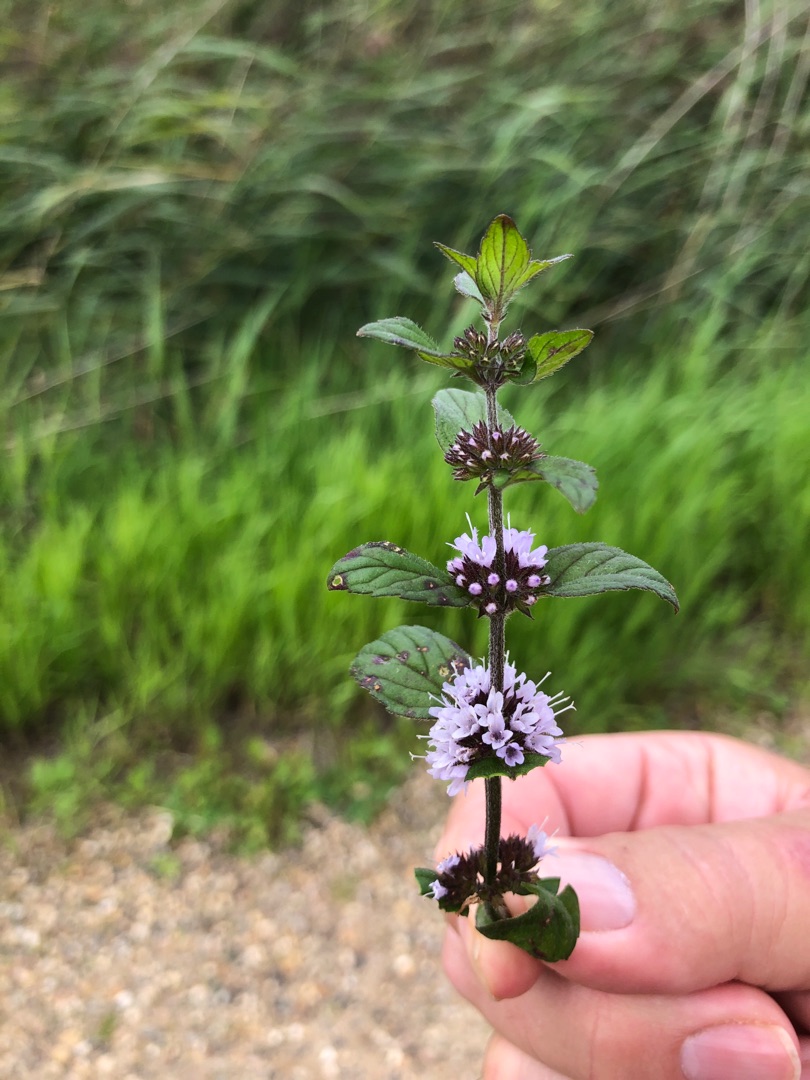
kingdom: Plantae
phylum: Tracheophyta
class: Magnoliopsida
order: Lamiales
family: Lamiaceae
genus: Mentha
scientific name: Mentha
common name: Mynteslægten
